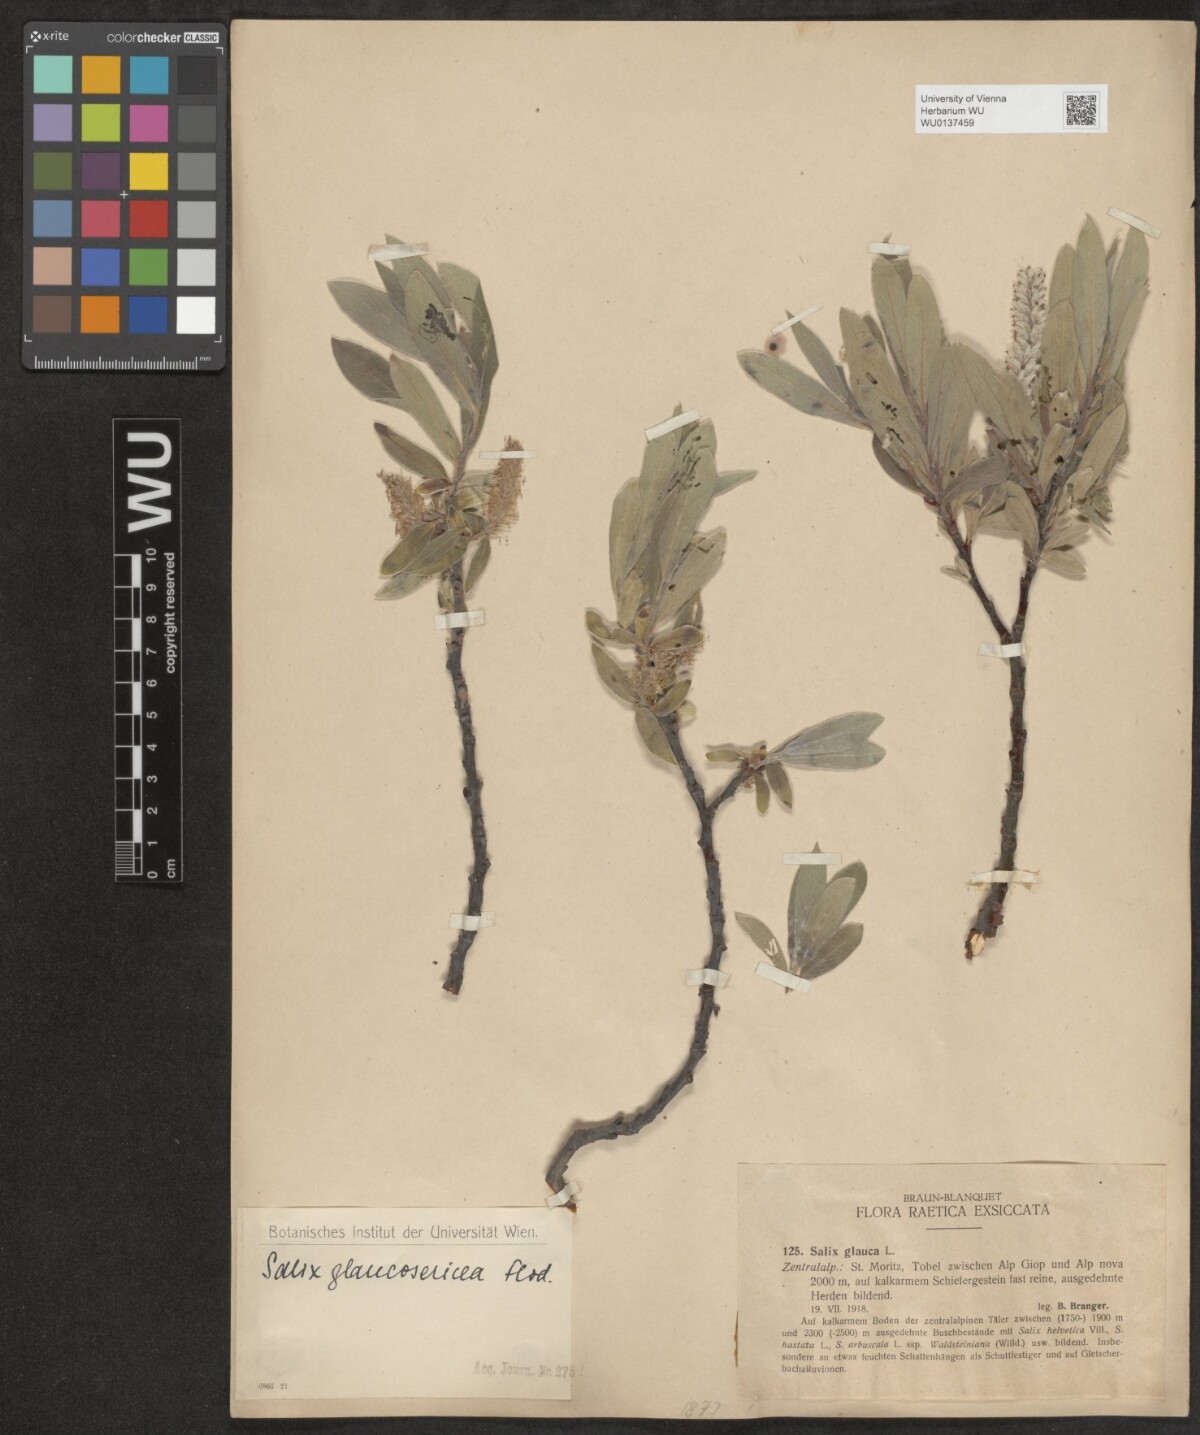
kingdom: Plantae
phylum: Tracheophyta
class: Magnoliopsida
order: Malpighiales
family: Salicaceae
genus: Salix
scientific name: Salix glaucosericea
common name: Alpine gray willow
